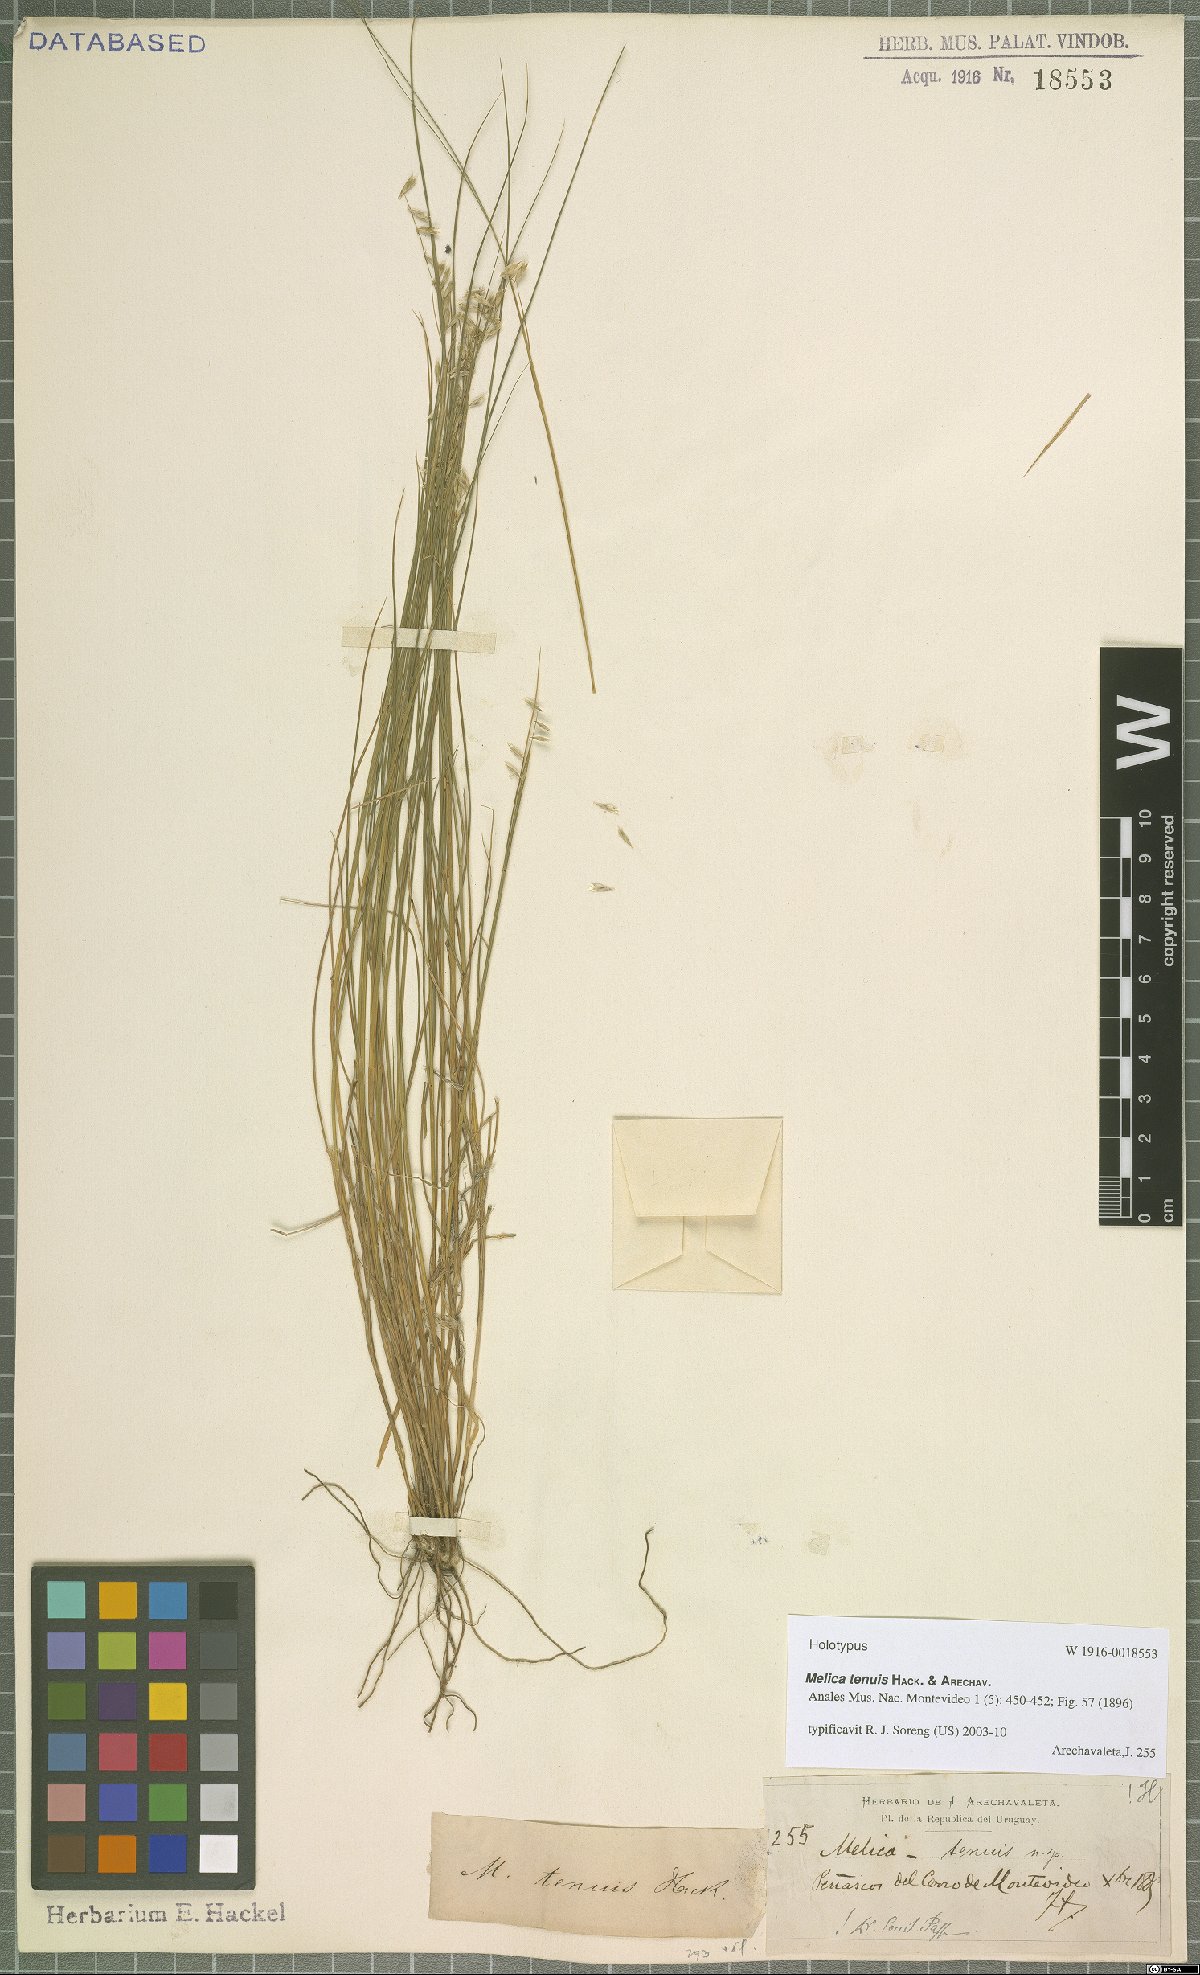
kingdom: Plantae
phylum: Tracheophyta
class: Liliopsida
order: Poales
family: Poaceae
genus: Melica
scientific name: Melica tenuis
